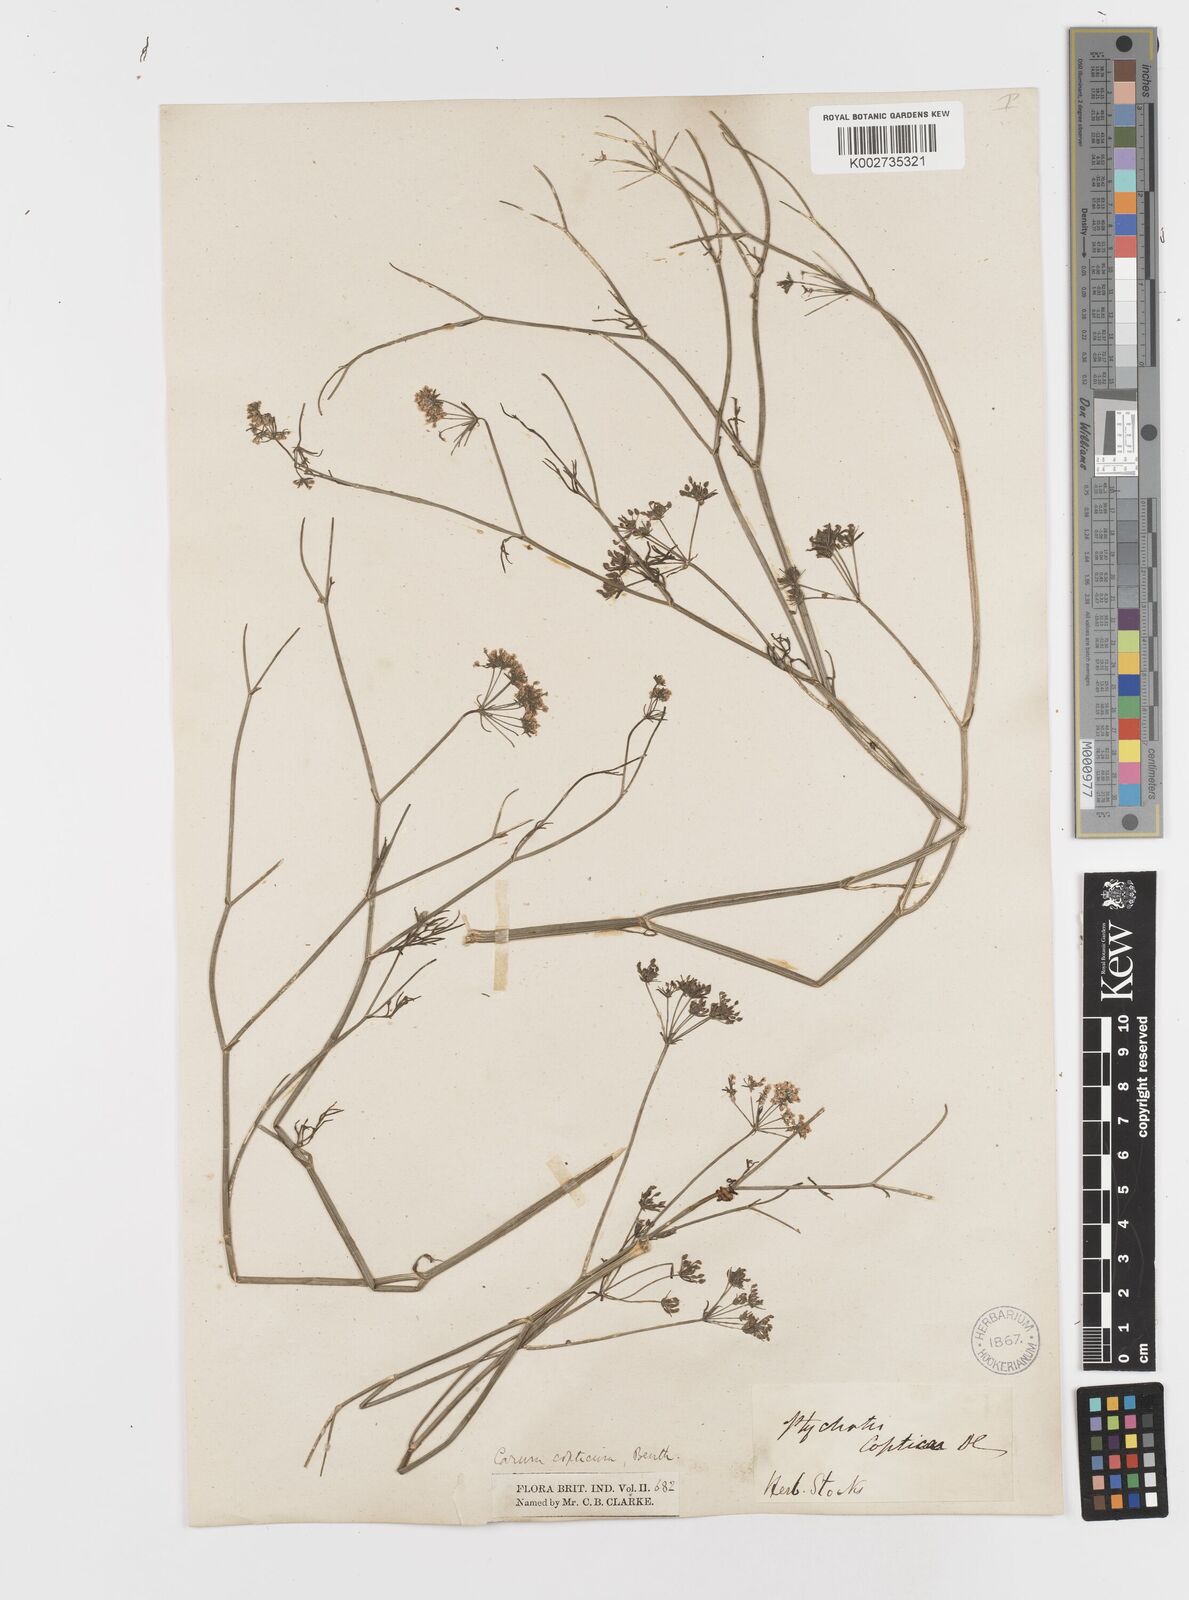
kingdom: Plantae
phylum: Tracheophyta
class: Magnoliopsida
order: Apiales
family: Apiaceae
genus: Trachyspermum
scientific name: Trachyspermum ammi
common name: Ajowan
